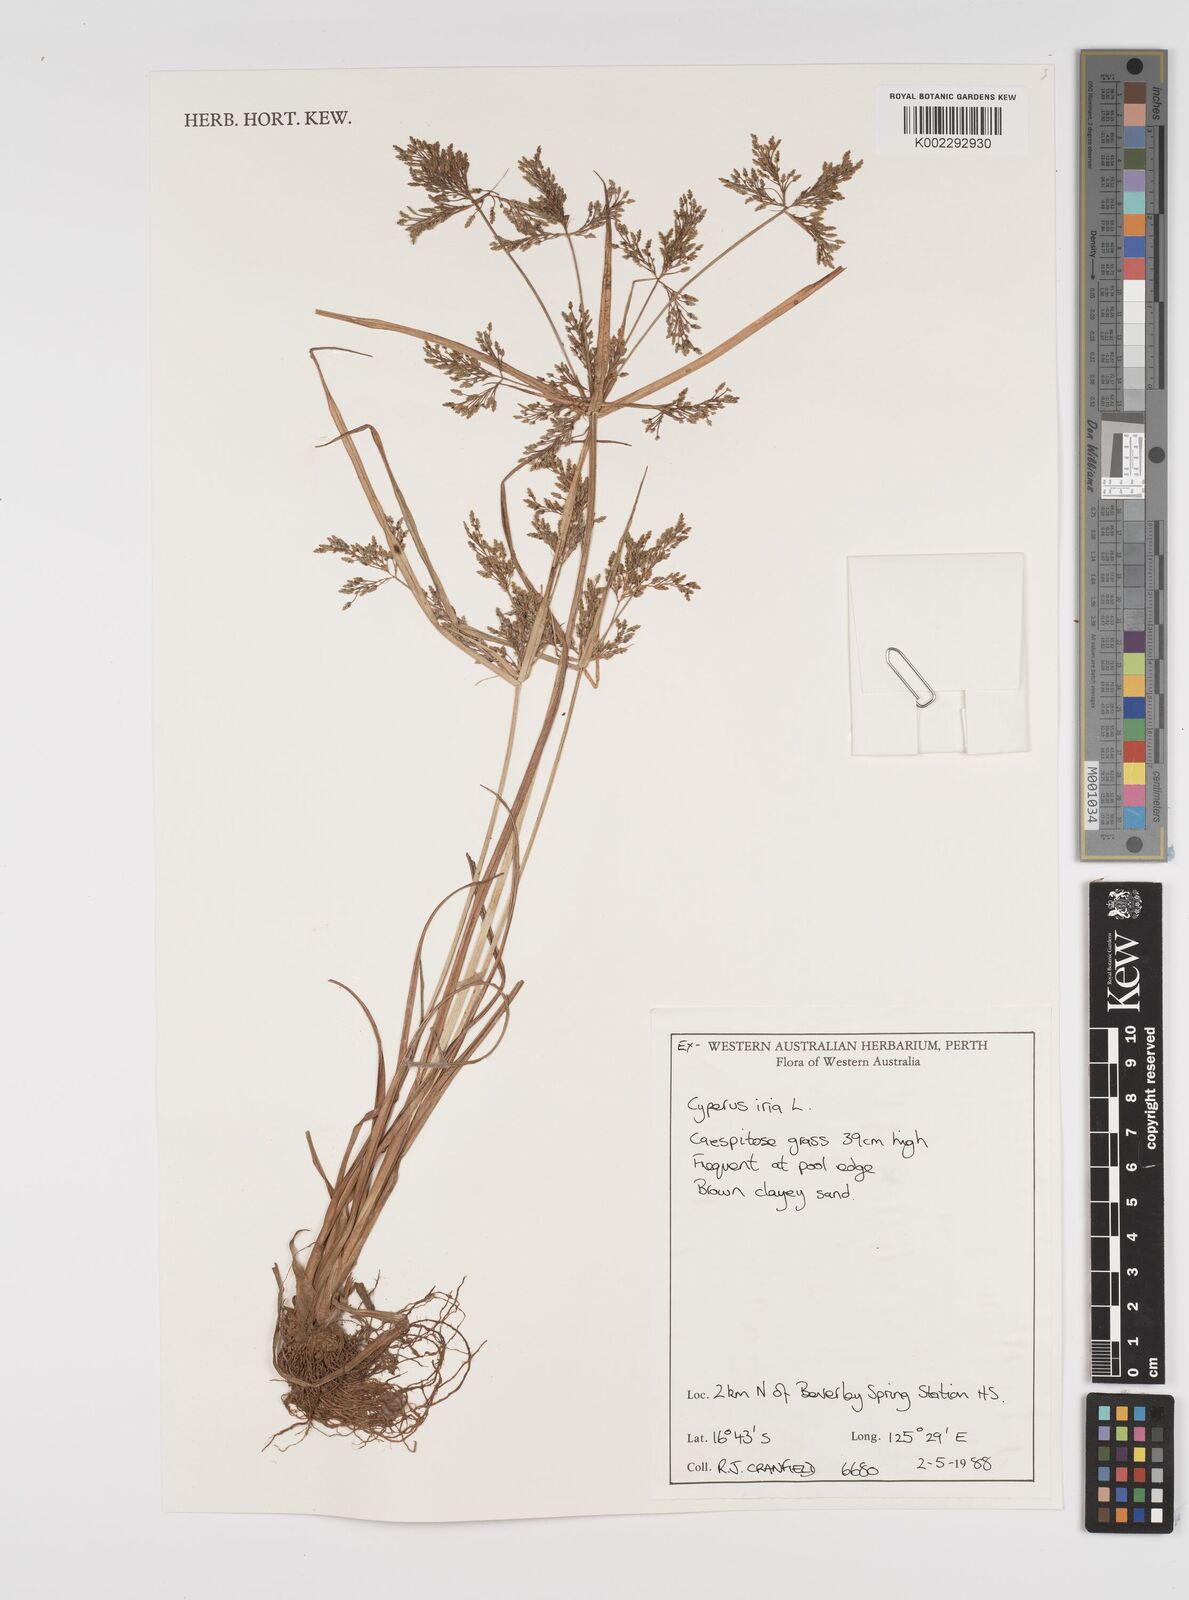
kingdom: Plantae
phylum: Tracheophyta
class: Liliopsida
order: Poales
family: Cyperaceae
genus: Cyperus
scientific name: Cyperus iria
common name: Ricefield flatsedge
